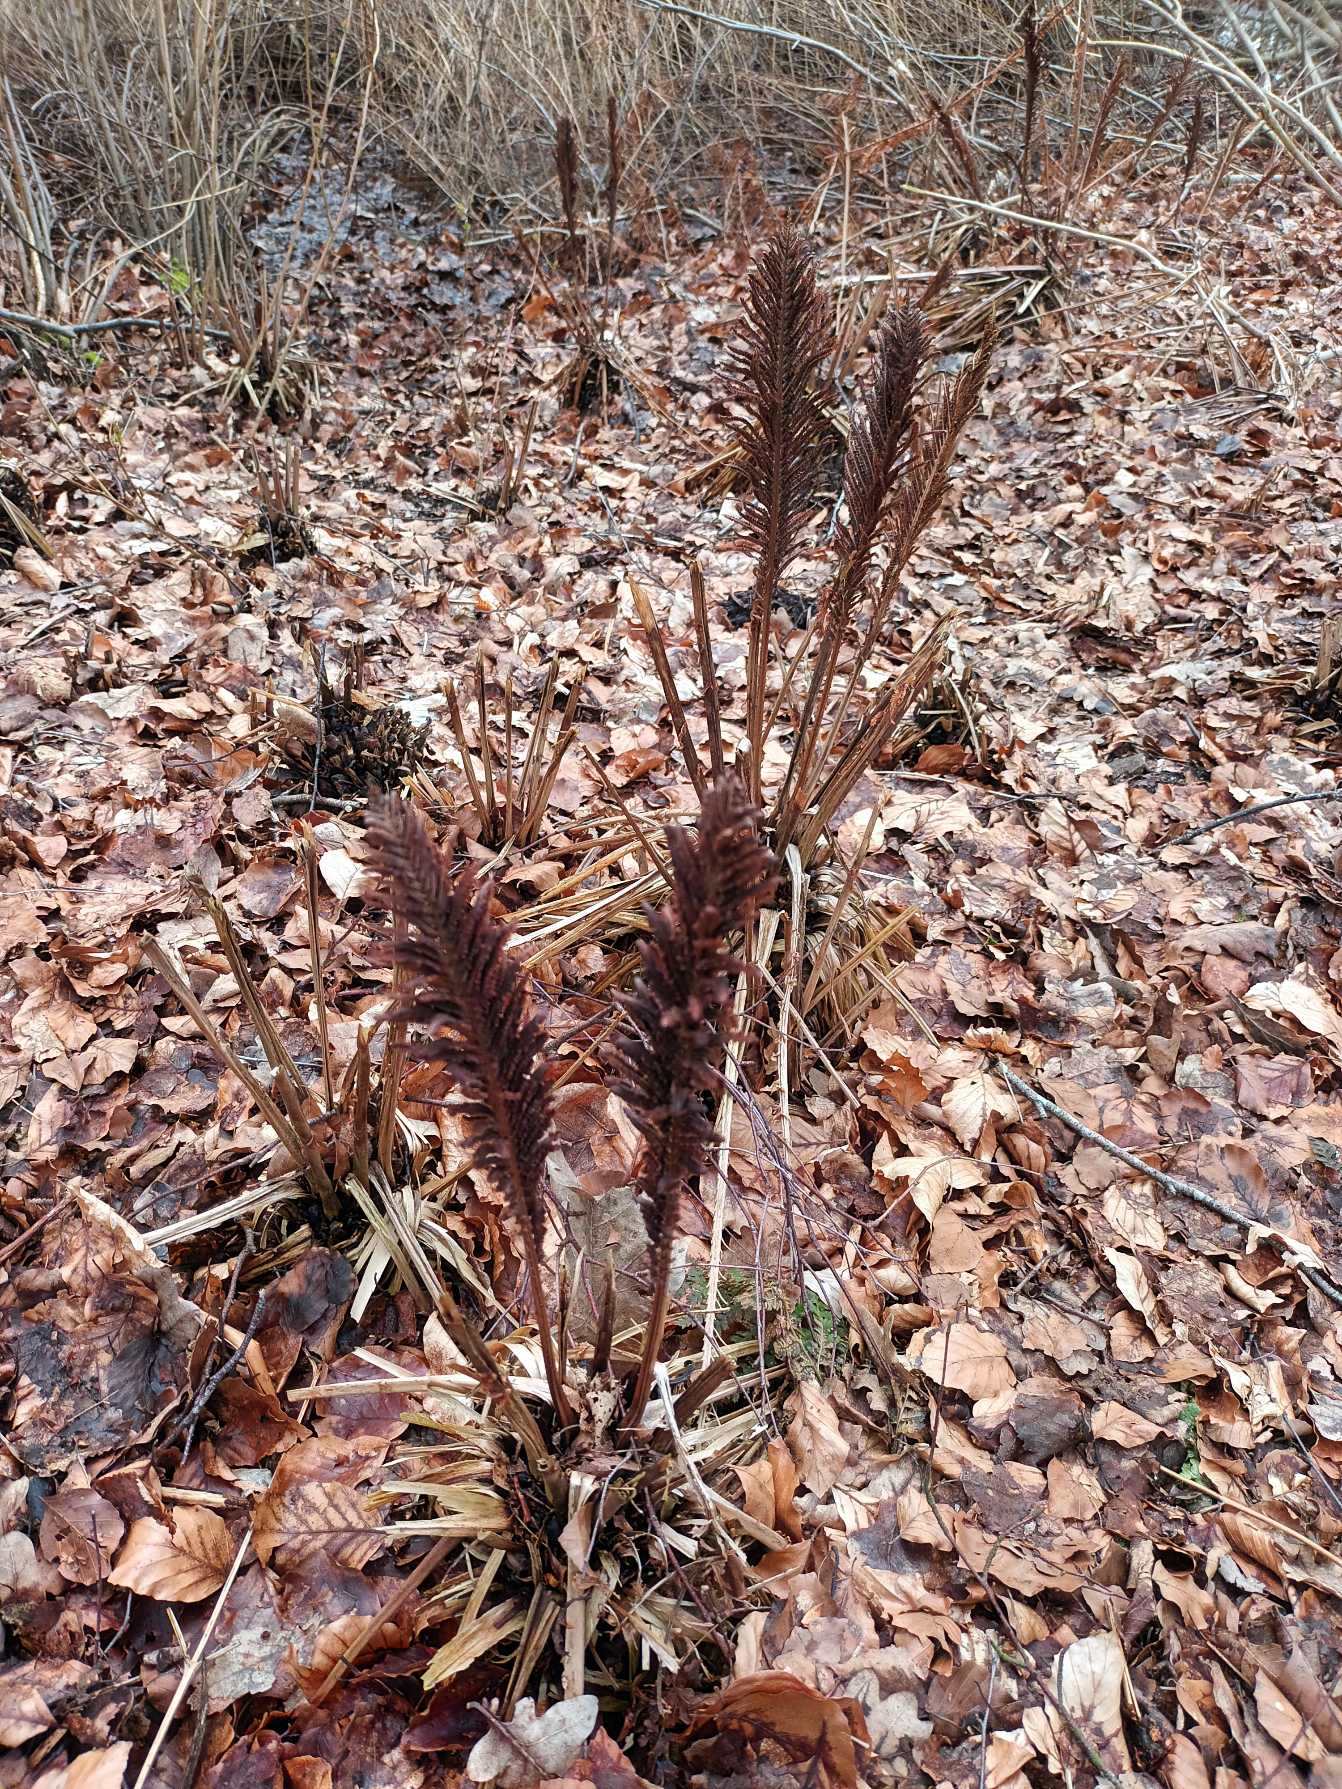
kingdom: Plantae
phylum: Tracheophyta
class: Polypodiopsida
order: Polypodiales
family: Onocleaceae
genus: Matteuccia
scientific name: Matteuccia struthiopteris
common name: Strudsvinge
